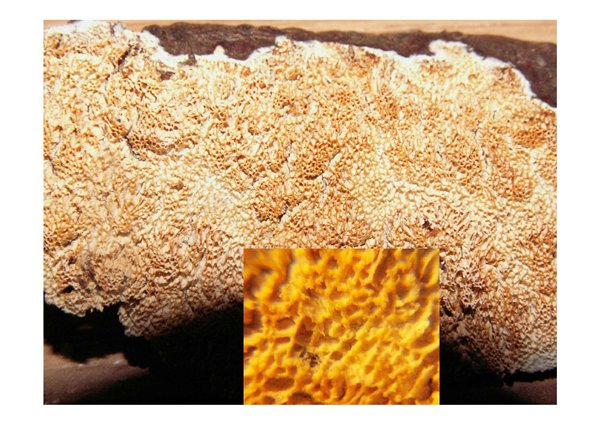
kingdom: Fungi
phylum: Basidiomycota
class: Agaricomycetes
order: Hymenochaetales
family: Schizoporaceae
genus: Xylodon
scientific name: Xylodon subtropicus
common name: labyrint-tandsvamp
